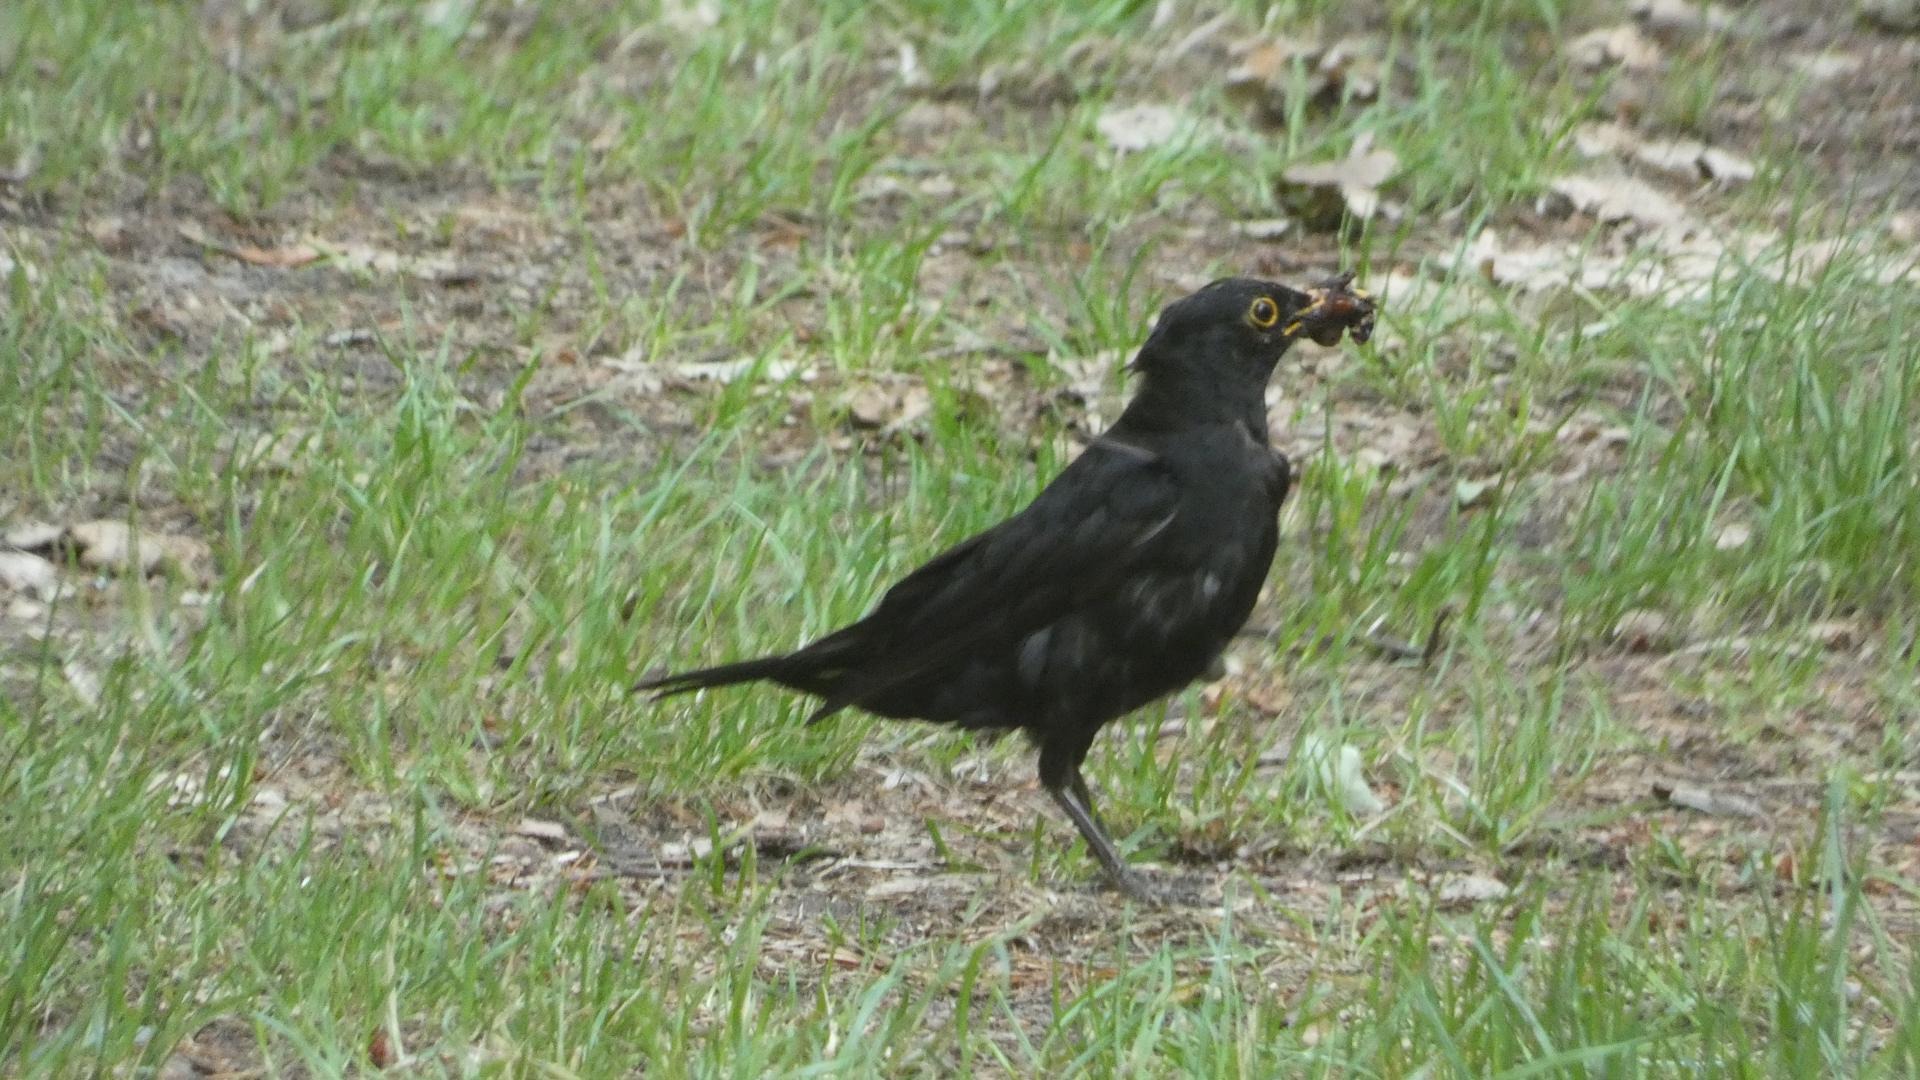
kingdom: Animalia
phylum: Chordata
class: Aves
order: Passeriformes
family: Turdidae
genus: Turdus
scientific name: Turdus merula
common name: Solsort
